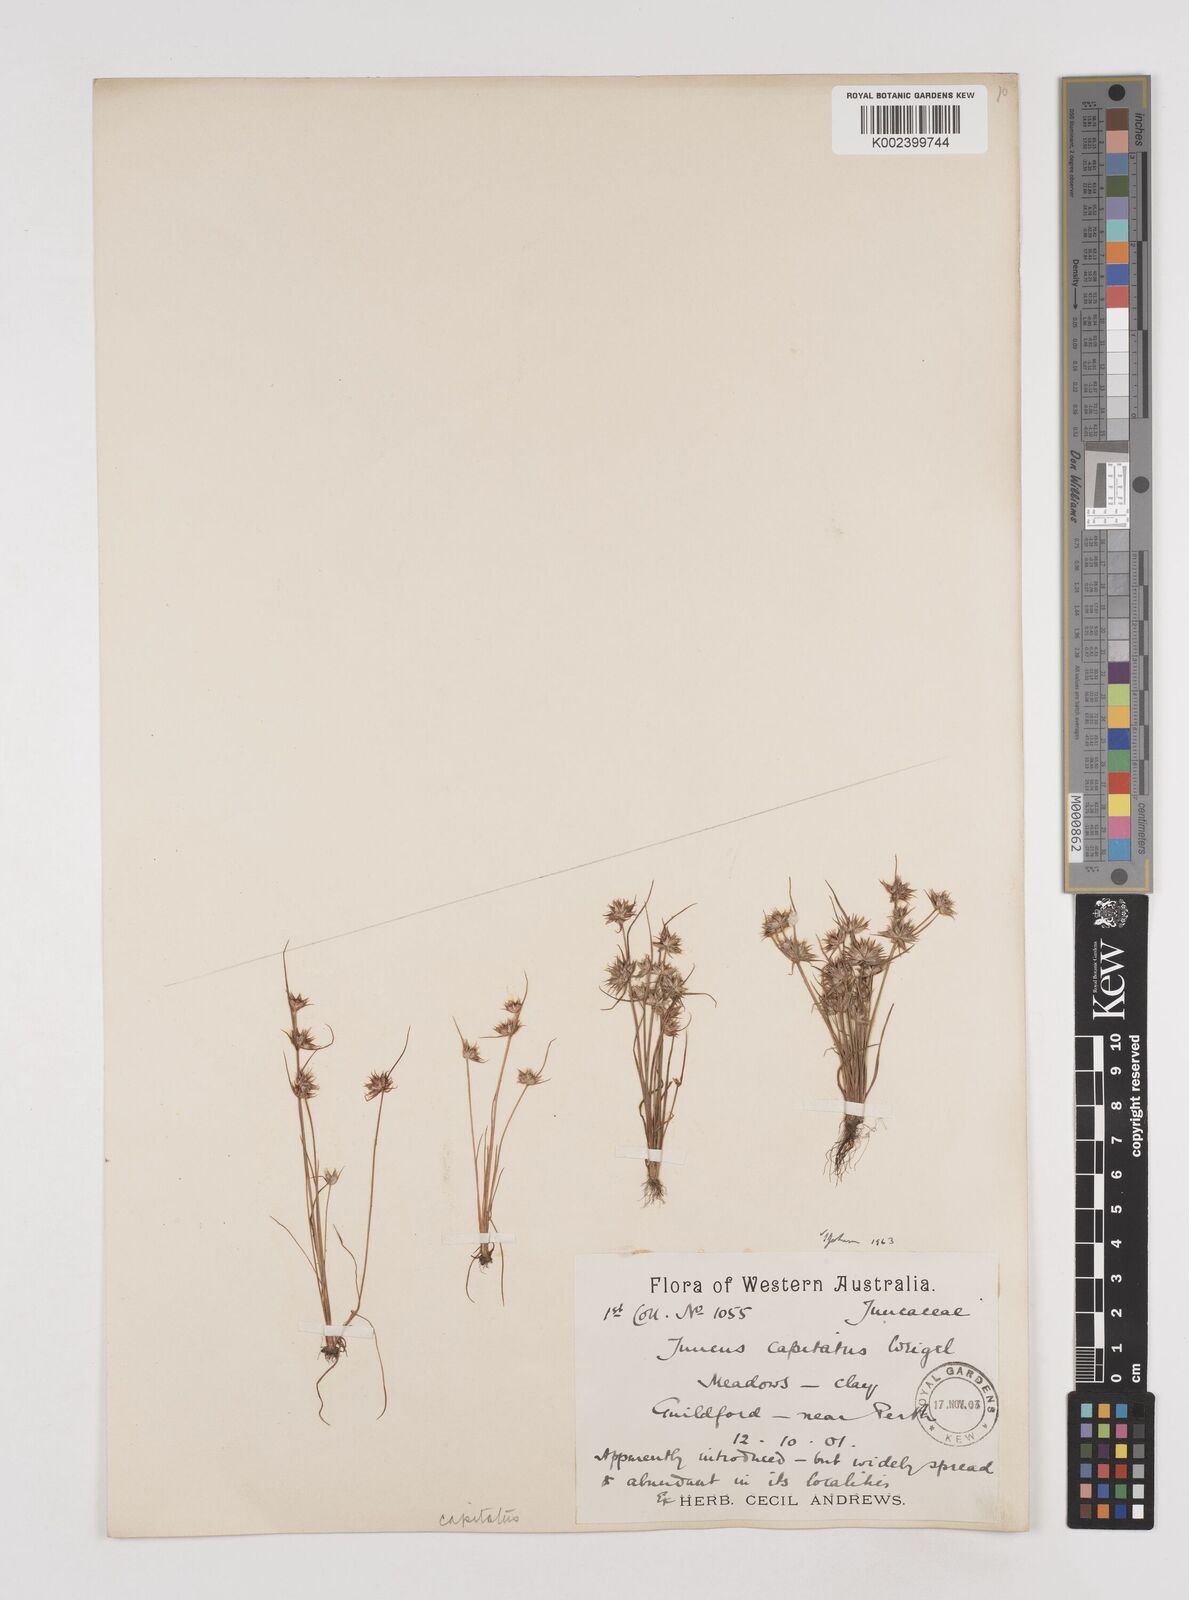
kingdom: Plantae
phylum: Tracheophyta
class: Liliopsida
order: Poales
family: Juncaceae
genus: Juncus
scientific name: Juncus capitatus
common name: Dwarf rush
